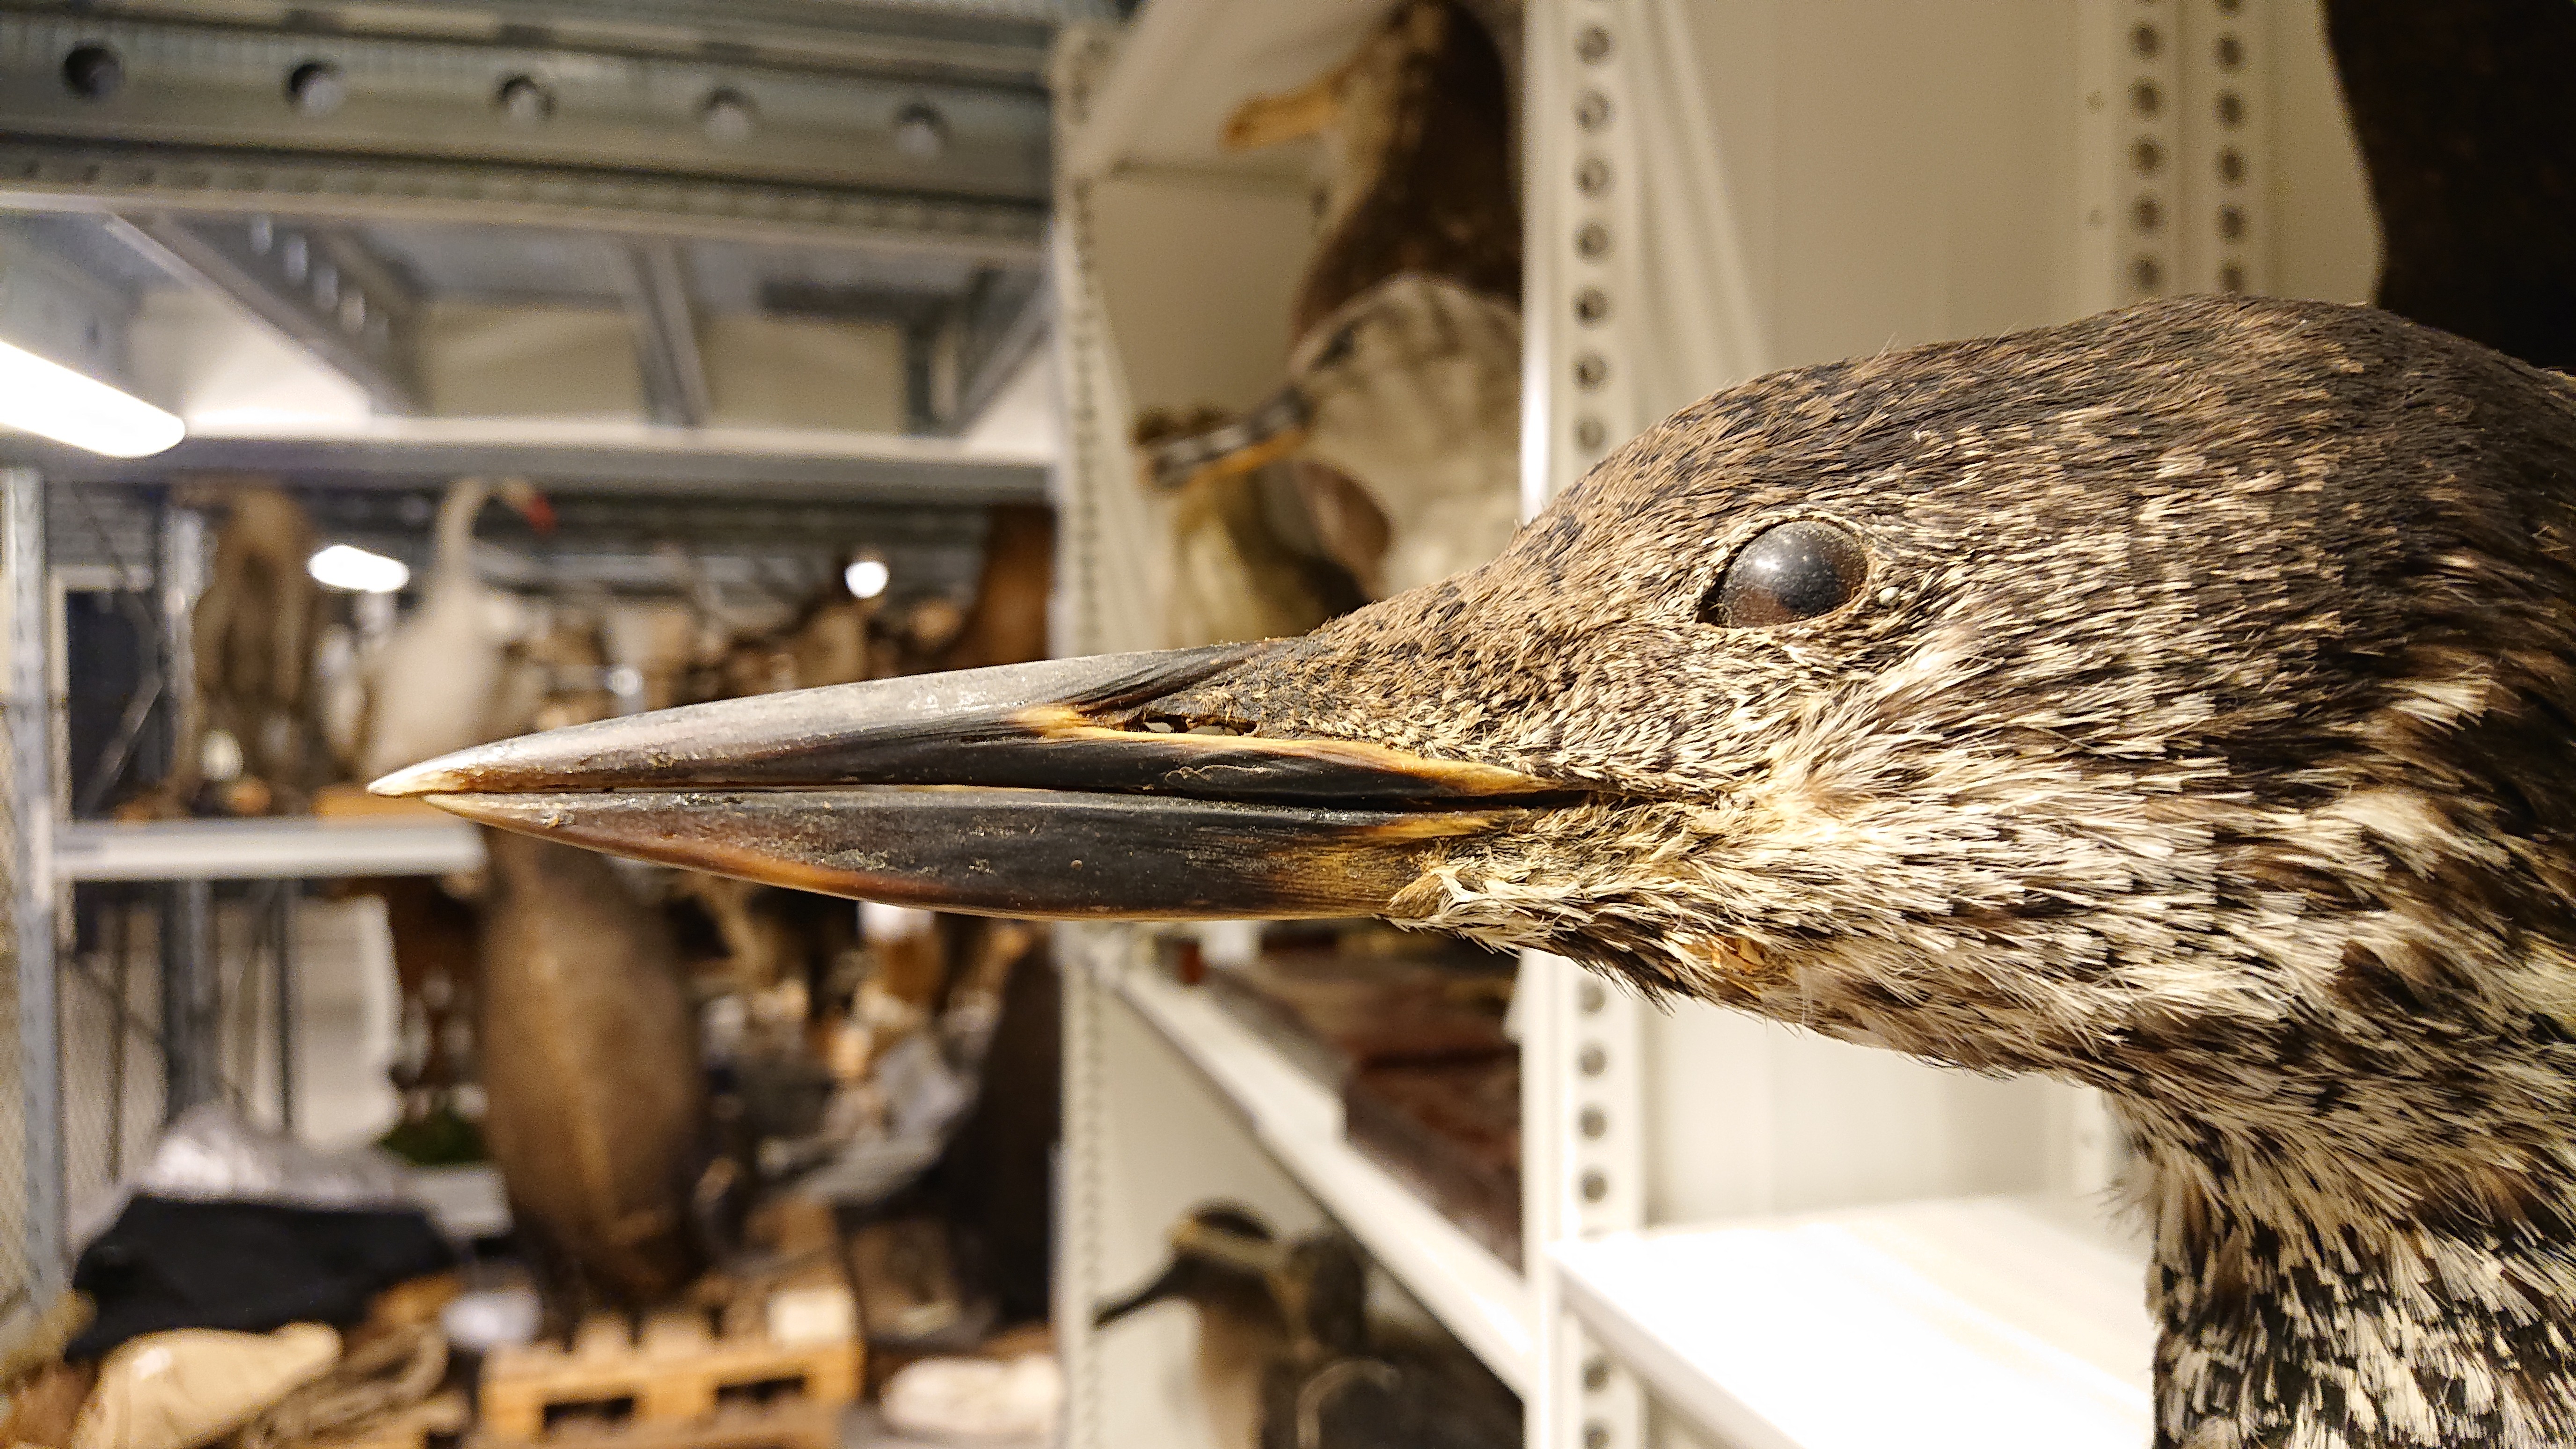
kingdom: Animalia
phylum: Chordata
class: Aves
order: Gaviiformes
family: Gaviidae
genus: Gavia
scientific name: Gavia immer
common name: Common loon
